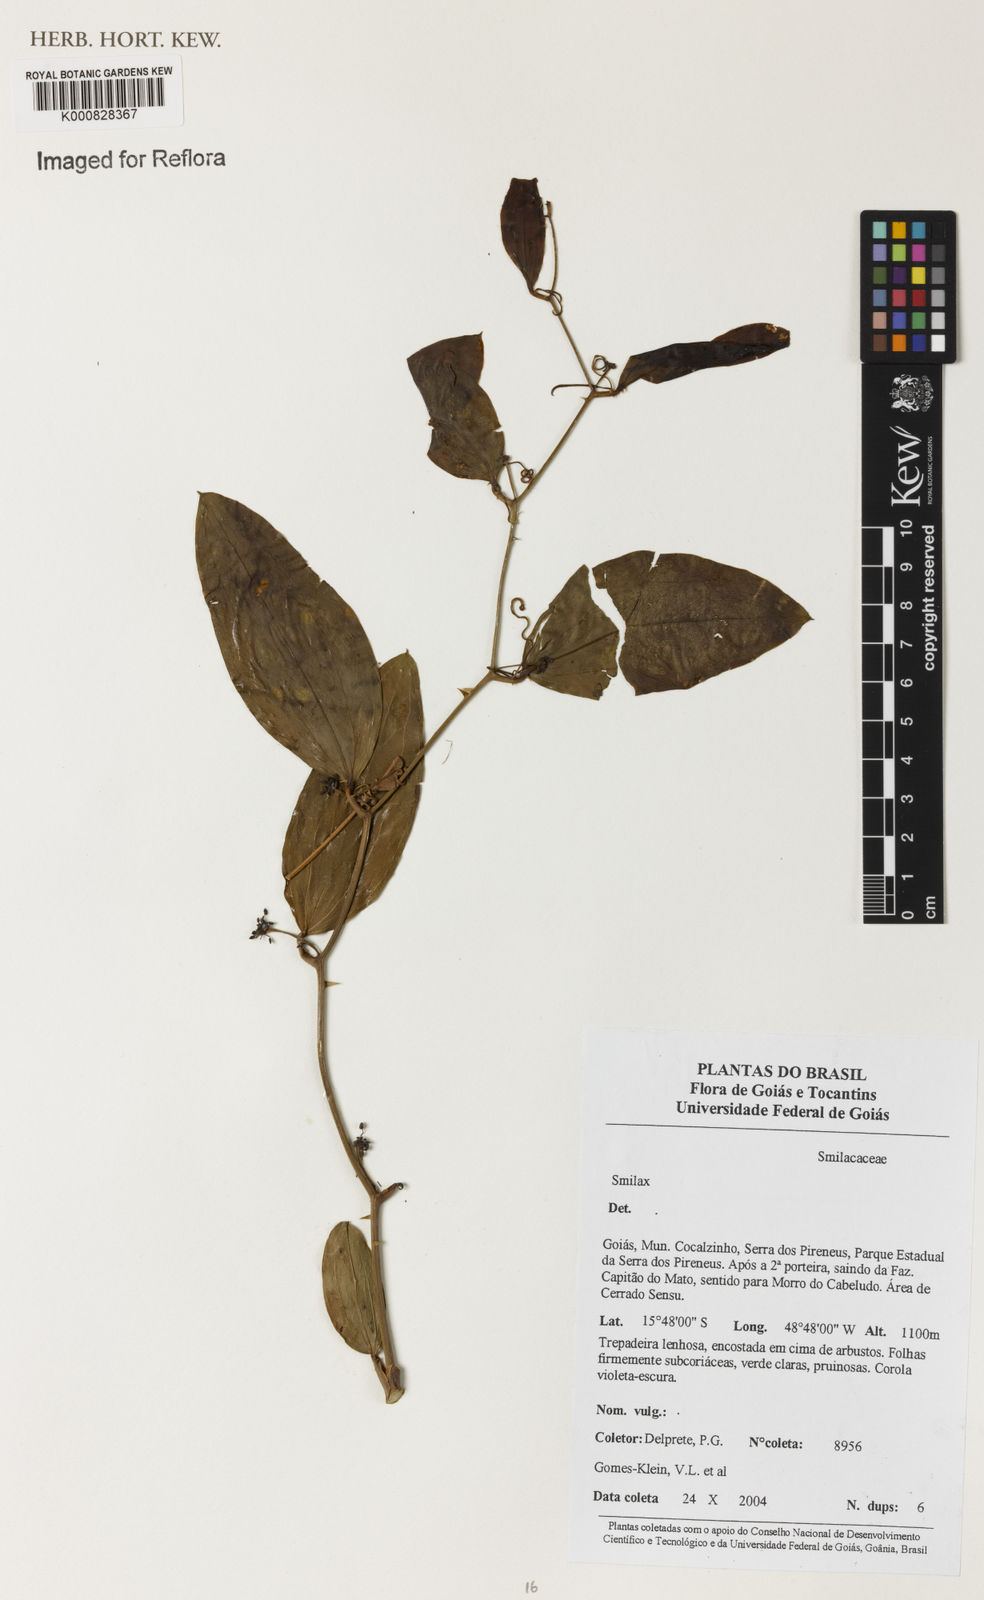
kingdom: Plantae
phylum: Tracheophyta
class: Liliopsida
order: Liliales
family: Smilacaceae
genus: Smilax
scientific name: Smilax
